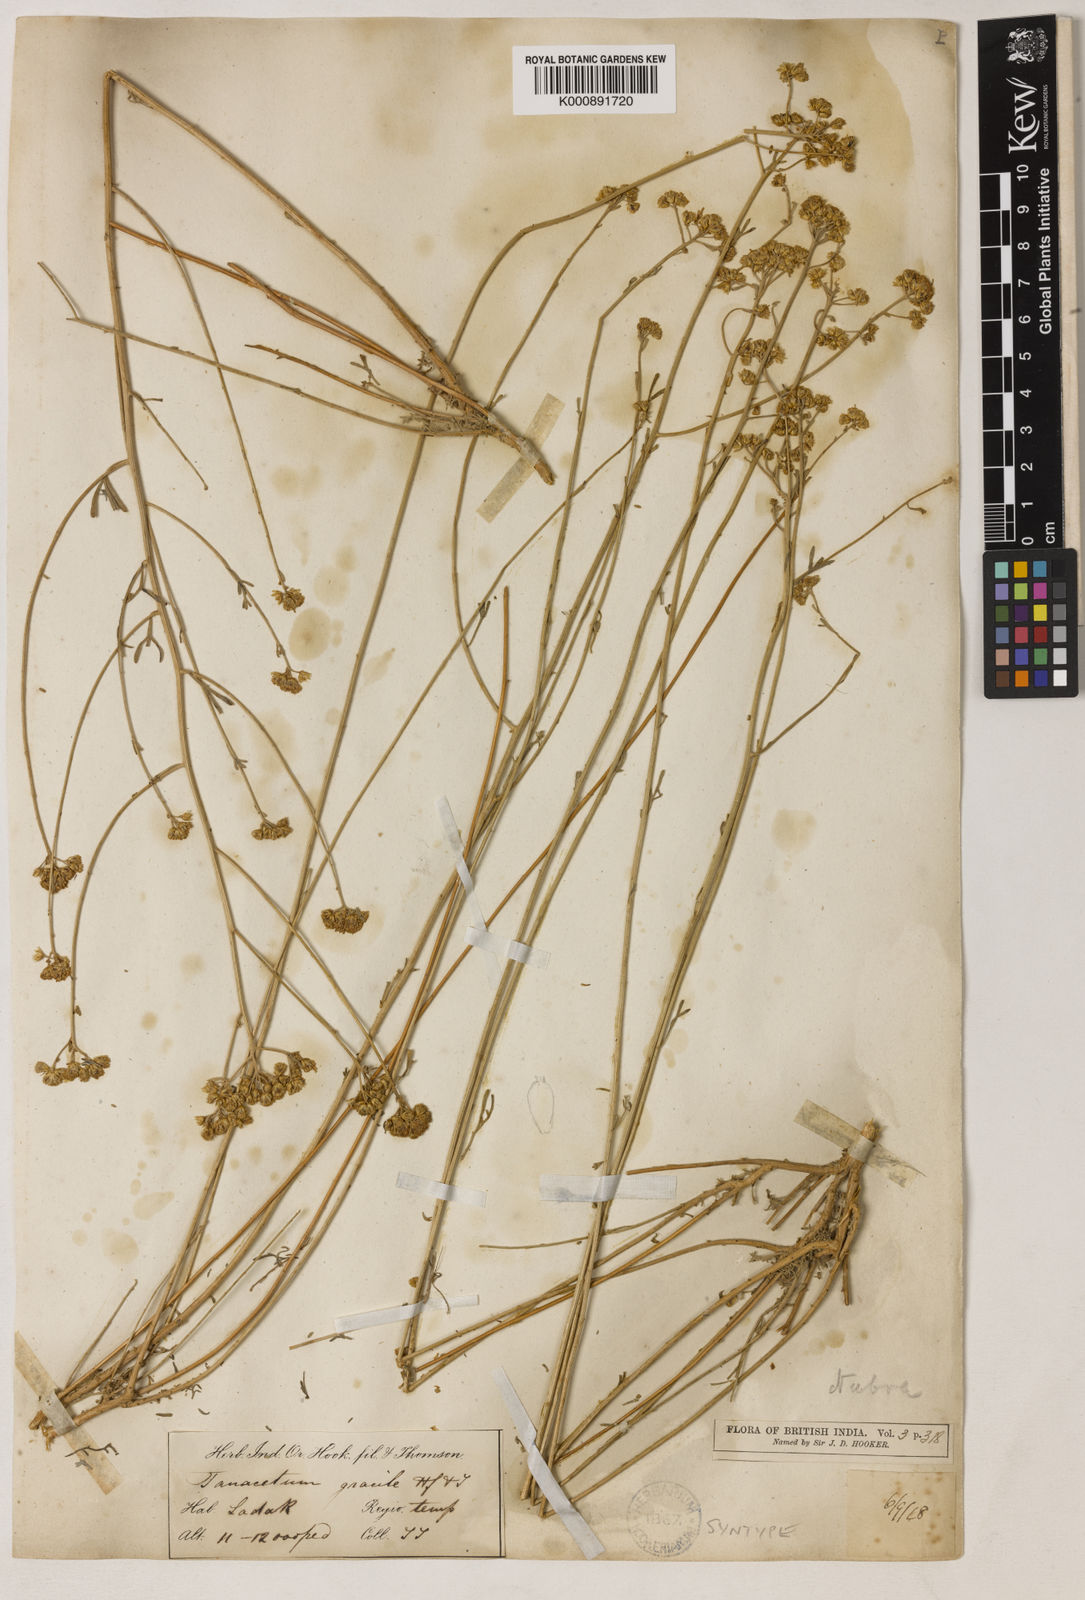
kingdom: Plantae
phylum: Tracheophyta
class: Magnoliopsida
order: Asterales
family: Asteraceae
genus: Ajania
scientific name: Ajania
